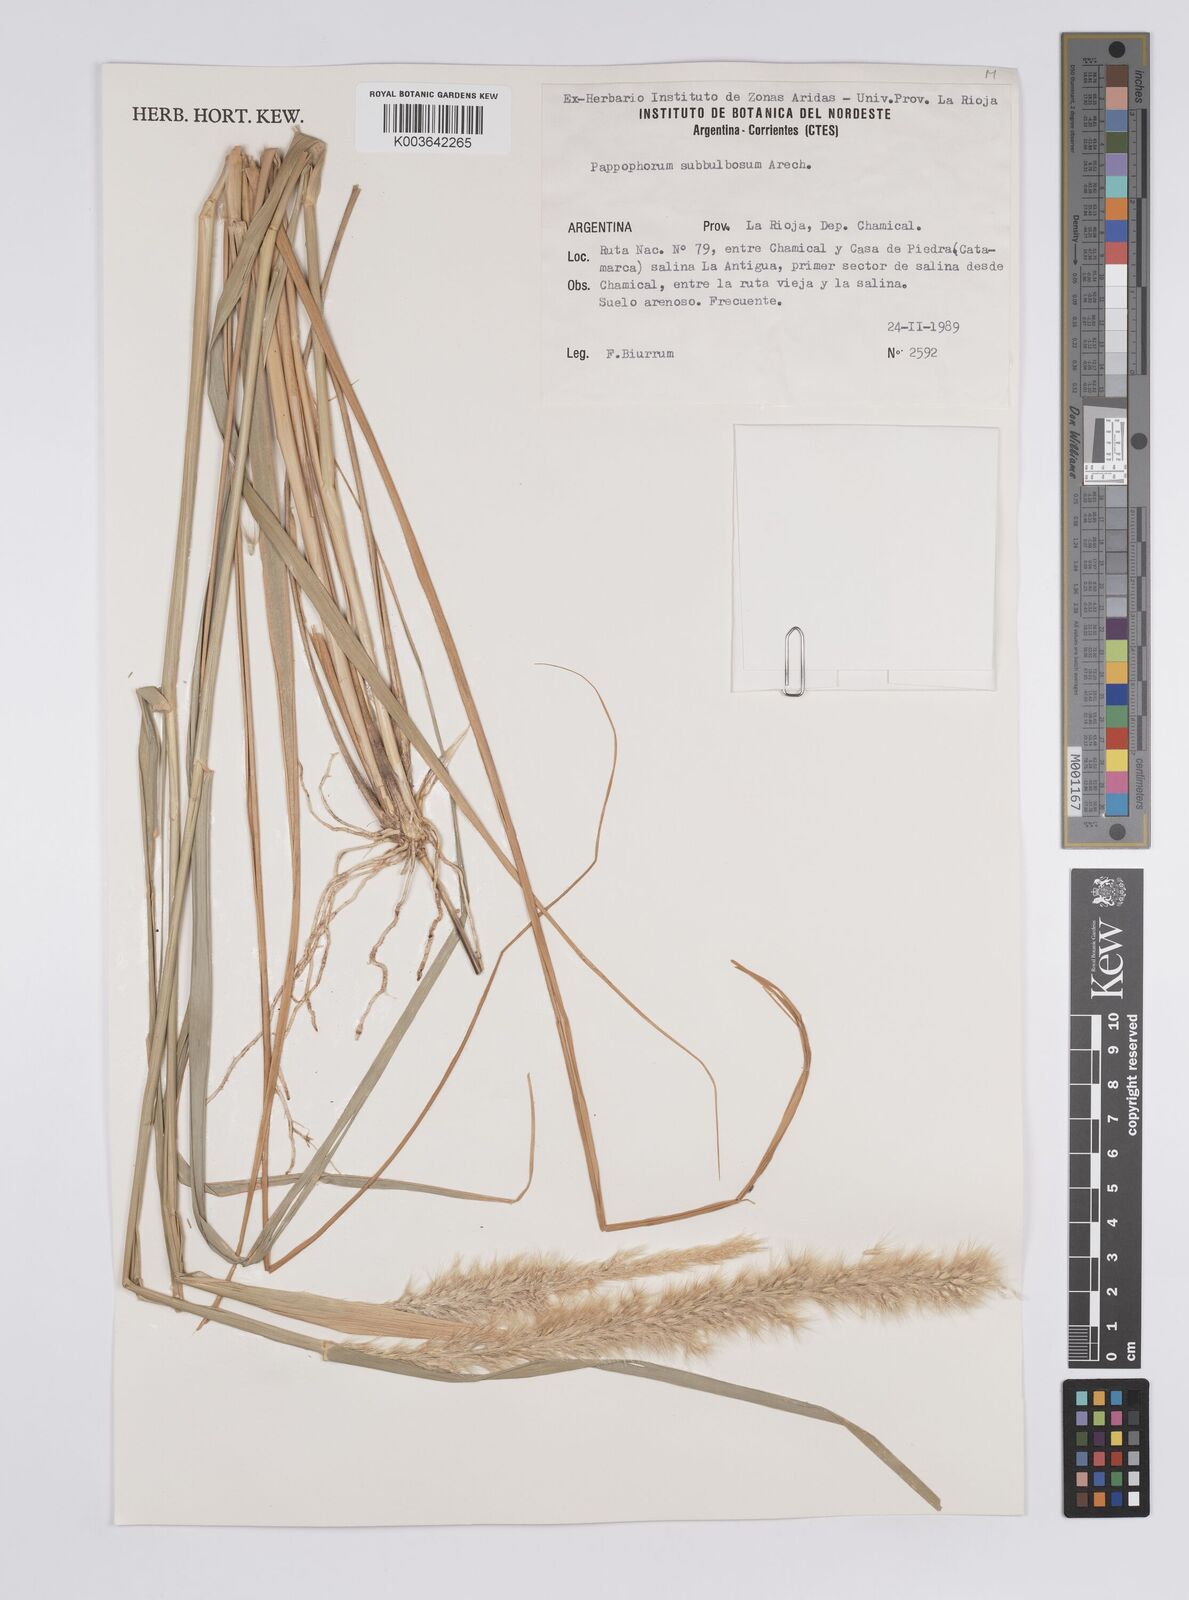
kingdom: Plantae
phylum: Tracheophyta
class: Liliopsida
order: Poales
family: Poaceae
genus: Pappophorum
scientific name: Pappophorum krapovickasii
